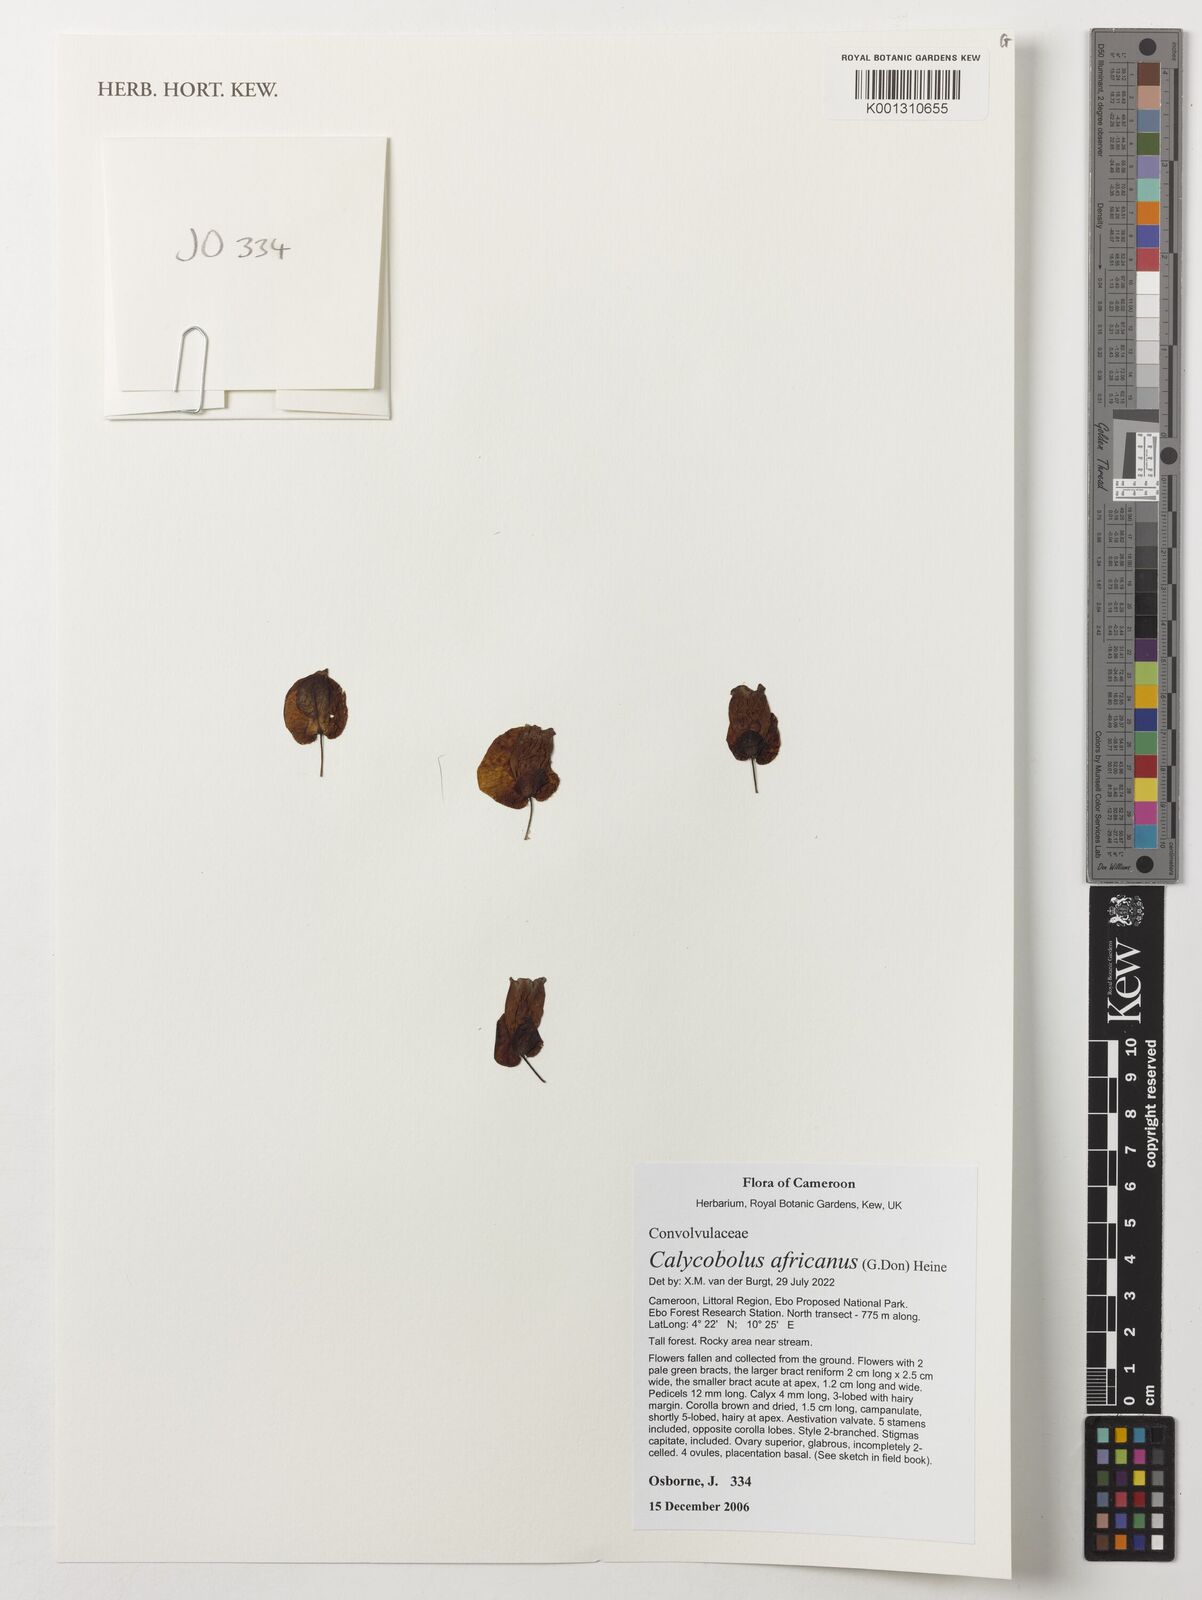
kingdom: Plantae
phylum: Tracheophyta
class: Magnoliopsida
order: Solanales
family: Convolvulaceae
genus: Calycobolus
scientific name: Calycobolus africanus
